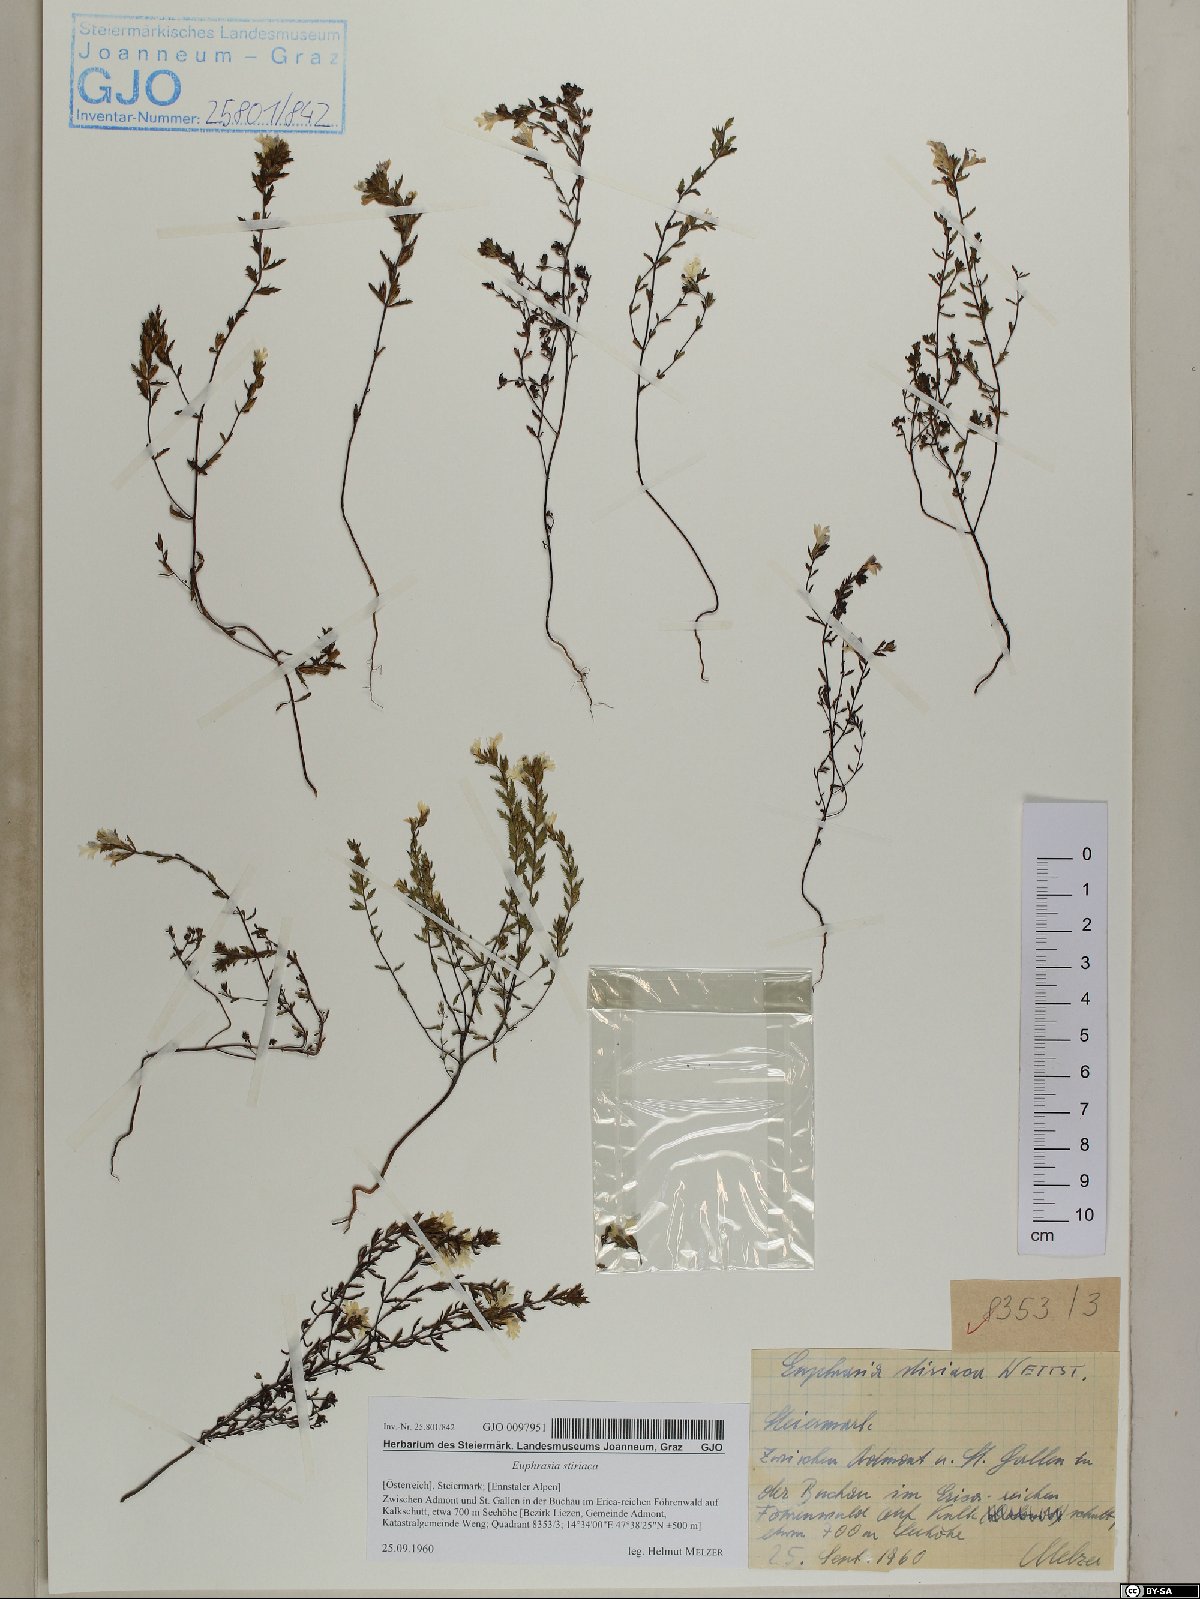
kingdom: Plantae
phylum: Tracheophyta
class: Magnoliopsida
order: Lamiales
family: Orobanchaceae
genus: Euphrasia
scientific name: Euphrasia cuspidata
